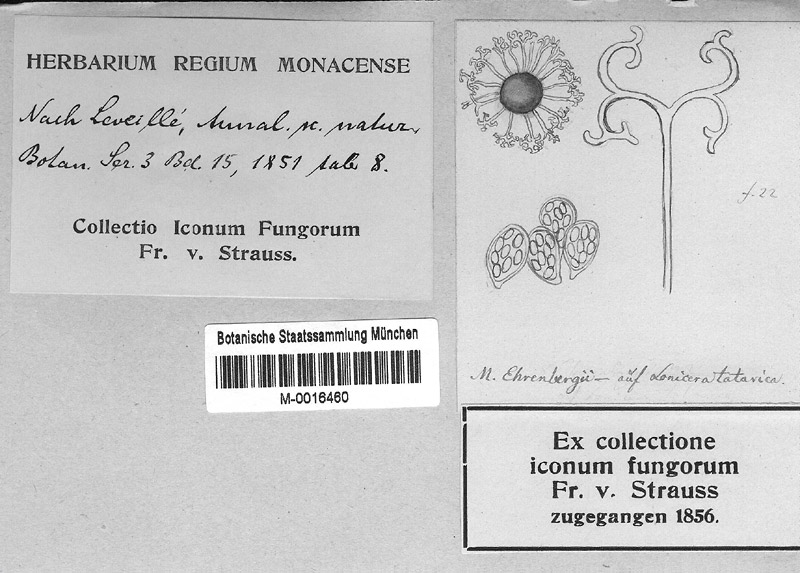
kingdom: Plantae
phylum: Tracheophyta
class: Magnoliopsida
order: Dipsacales
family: Caprifoliaceae
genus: Lonicera
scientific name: Lonicera tatarica
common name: Tatarian honeysuckle
